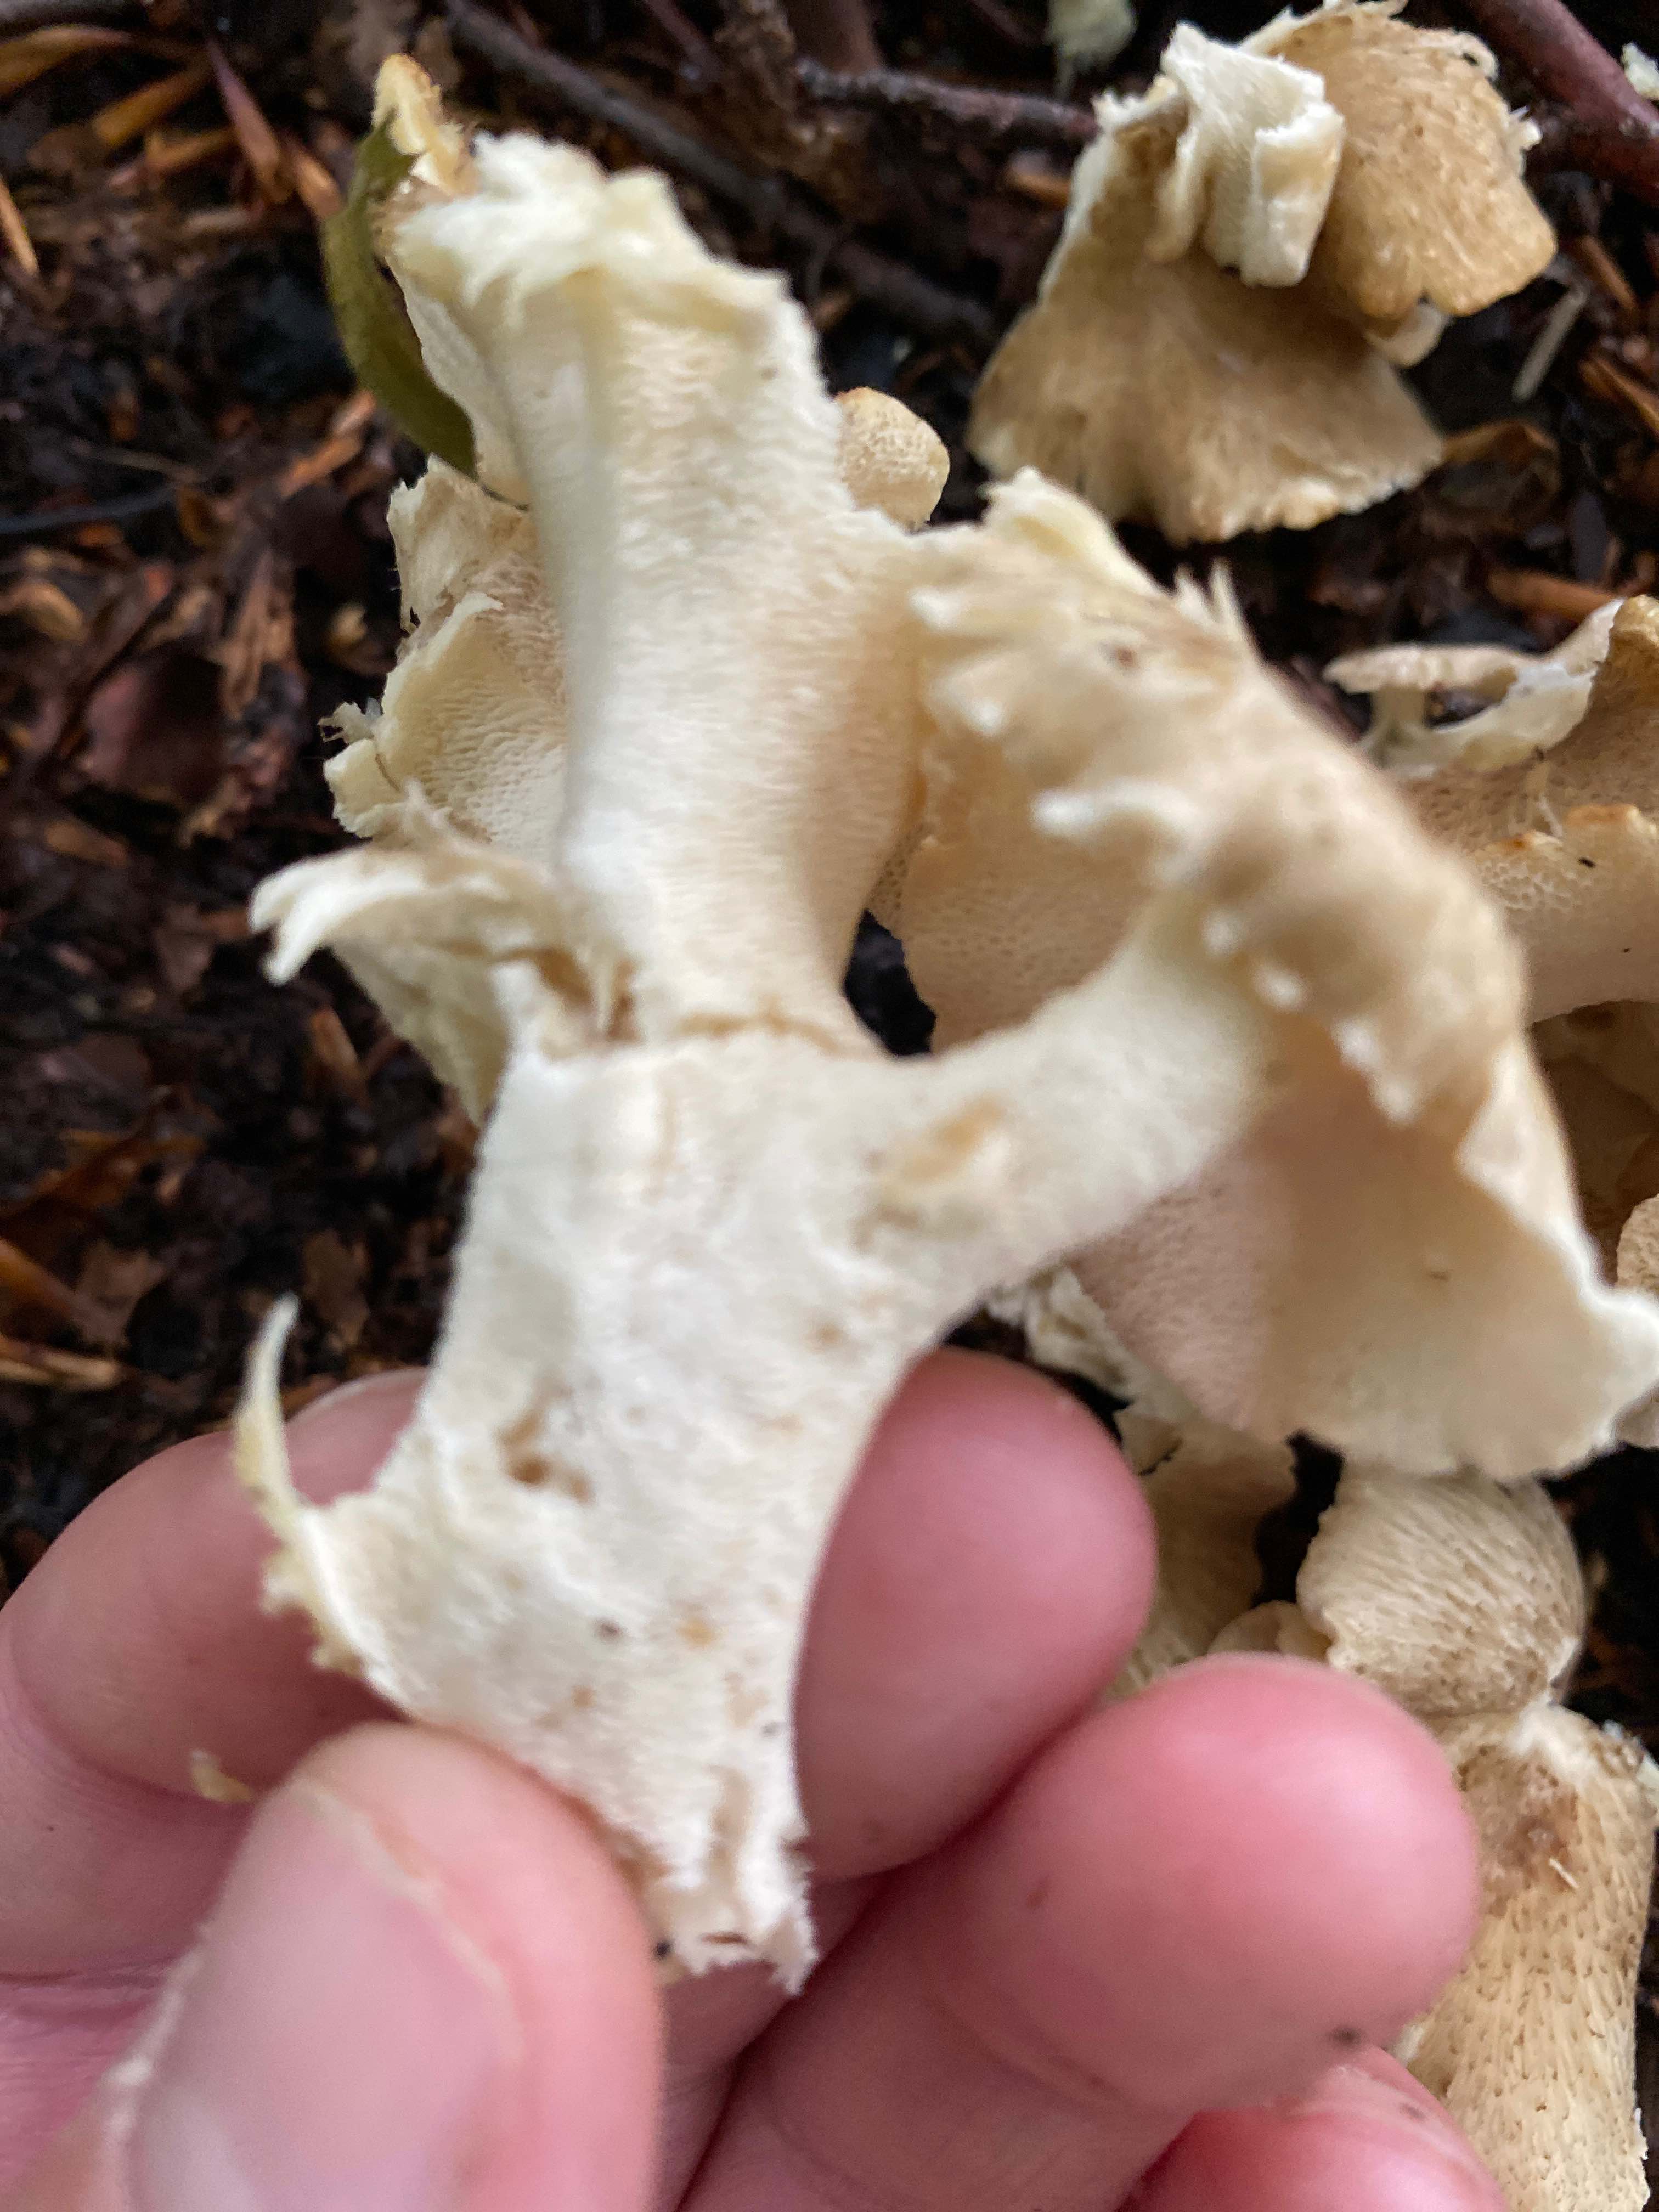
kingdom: Fungi
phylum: Basidiomycota
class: Agaricomycetes
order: Polyporales
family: Polyporaceae
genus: Polyporus
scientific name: Polyporus umbellatus
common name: skærmformet stilkporesvamp
